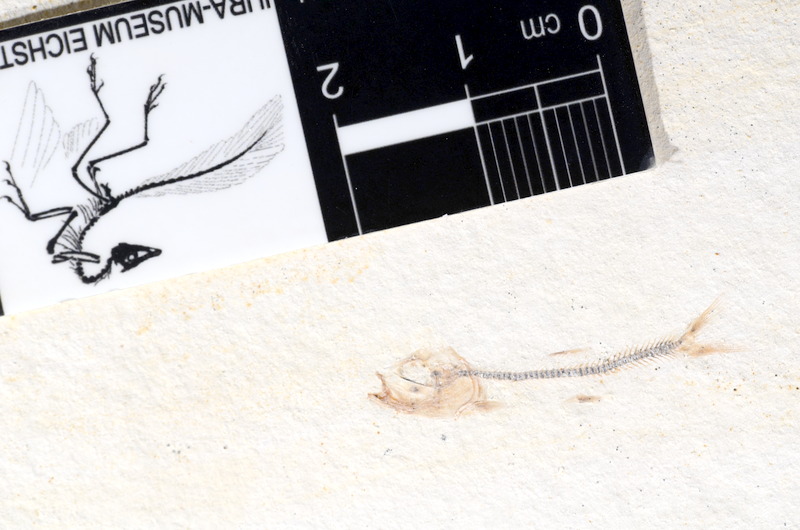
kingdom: Animalia
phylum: Chordata
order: Salmoniformes
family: Orthogonikleithridae
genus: Orthogonikleithrus
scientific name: Orthogonikleithrus hoelli
